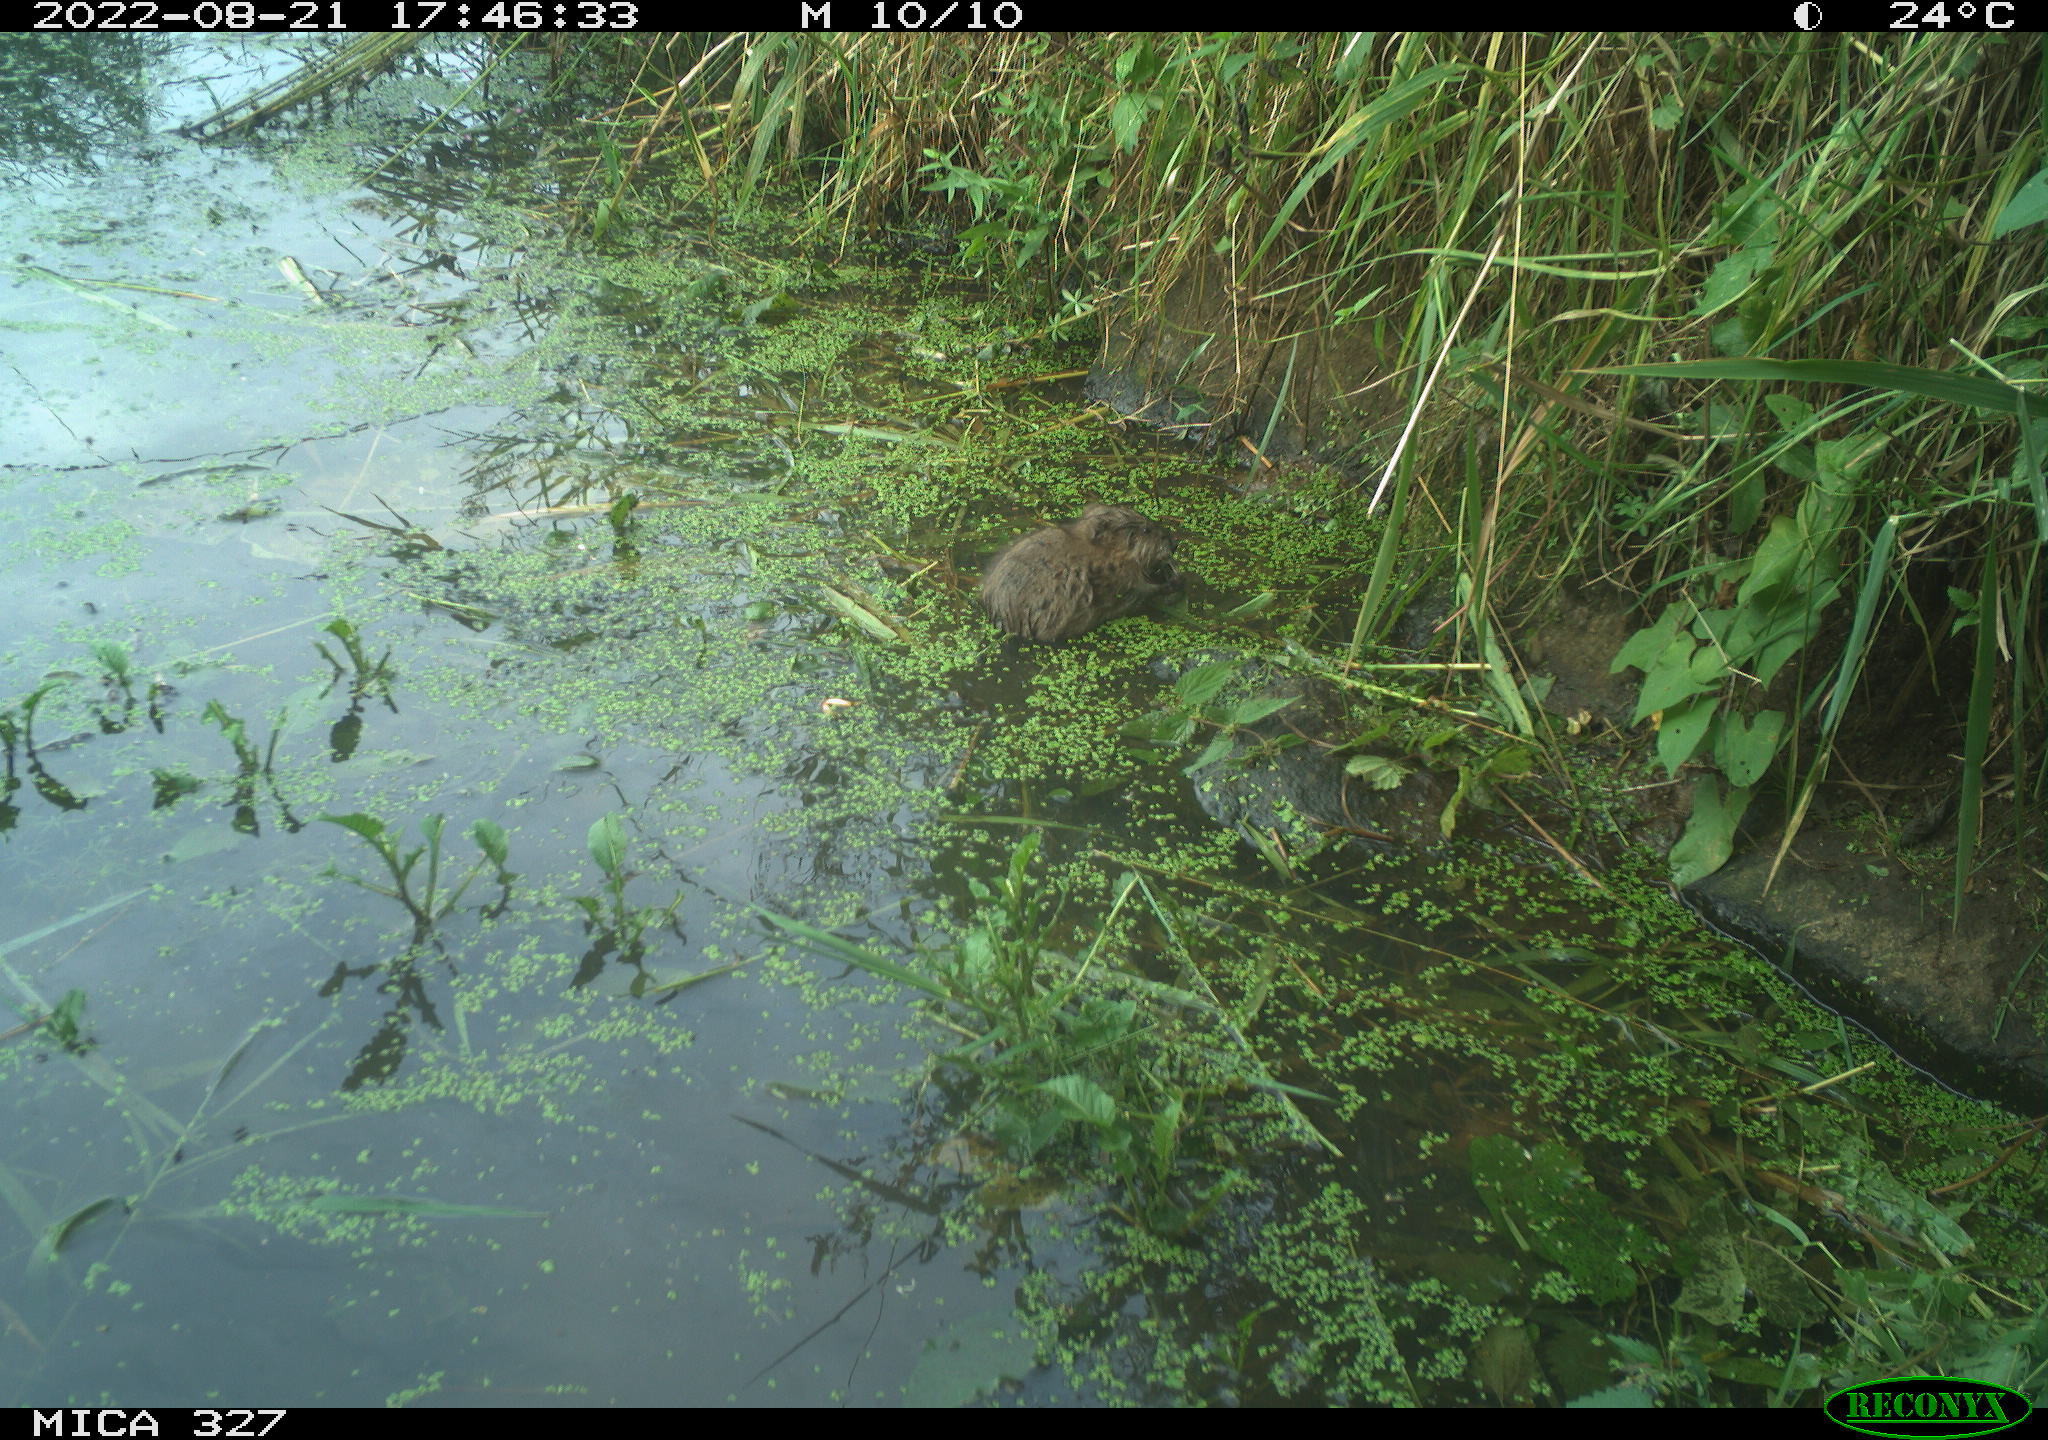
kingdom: Animalia
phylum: Chordata
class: Mammalia
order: Rodentia
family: Cricetidae
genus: Ondatra
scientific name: Ondatra zibethicus
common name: Muskrat
